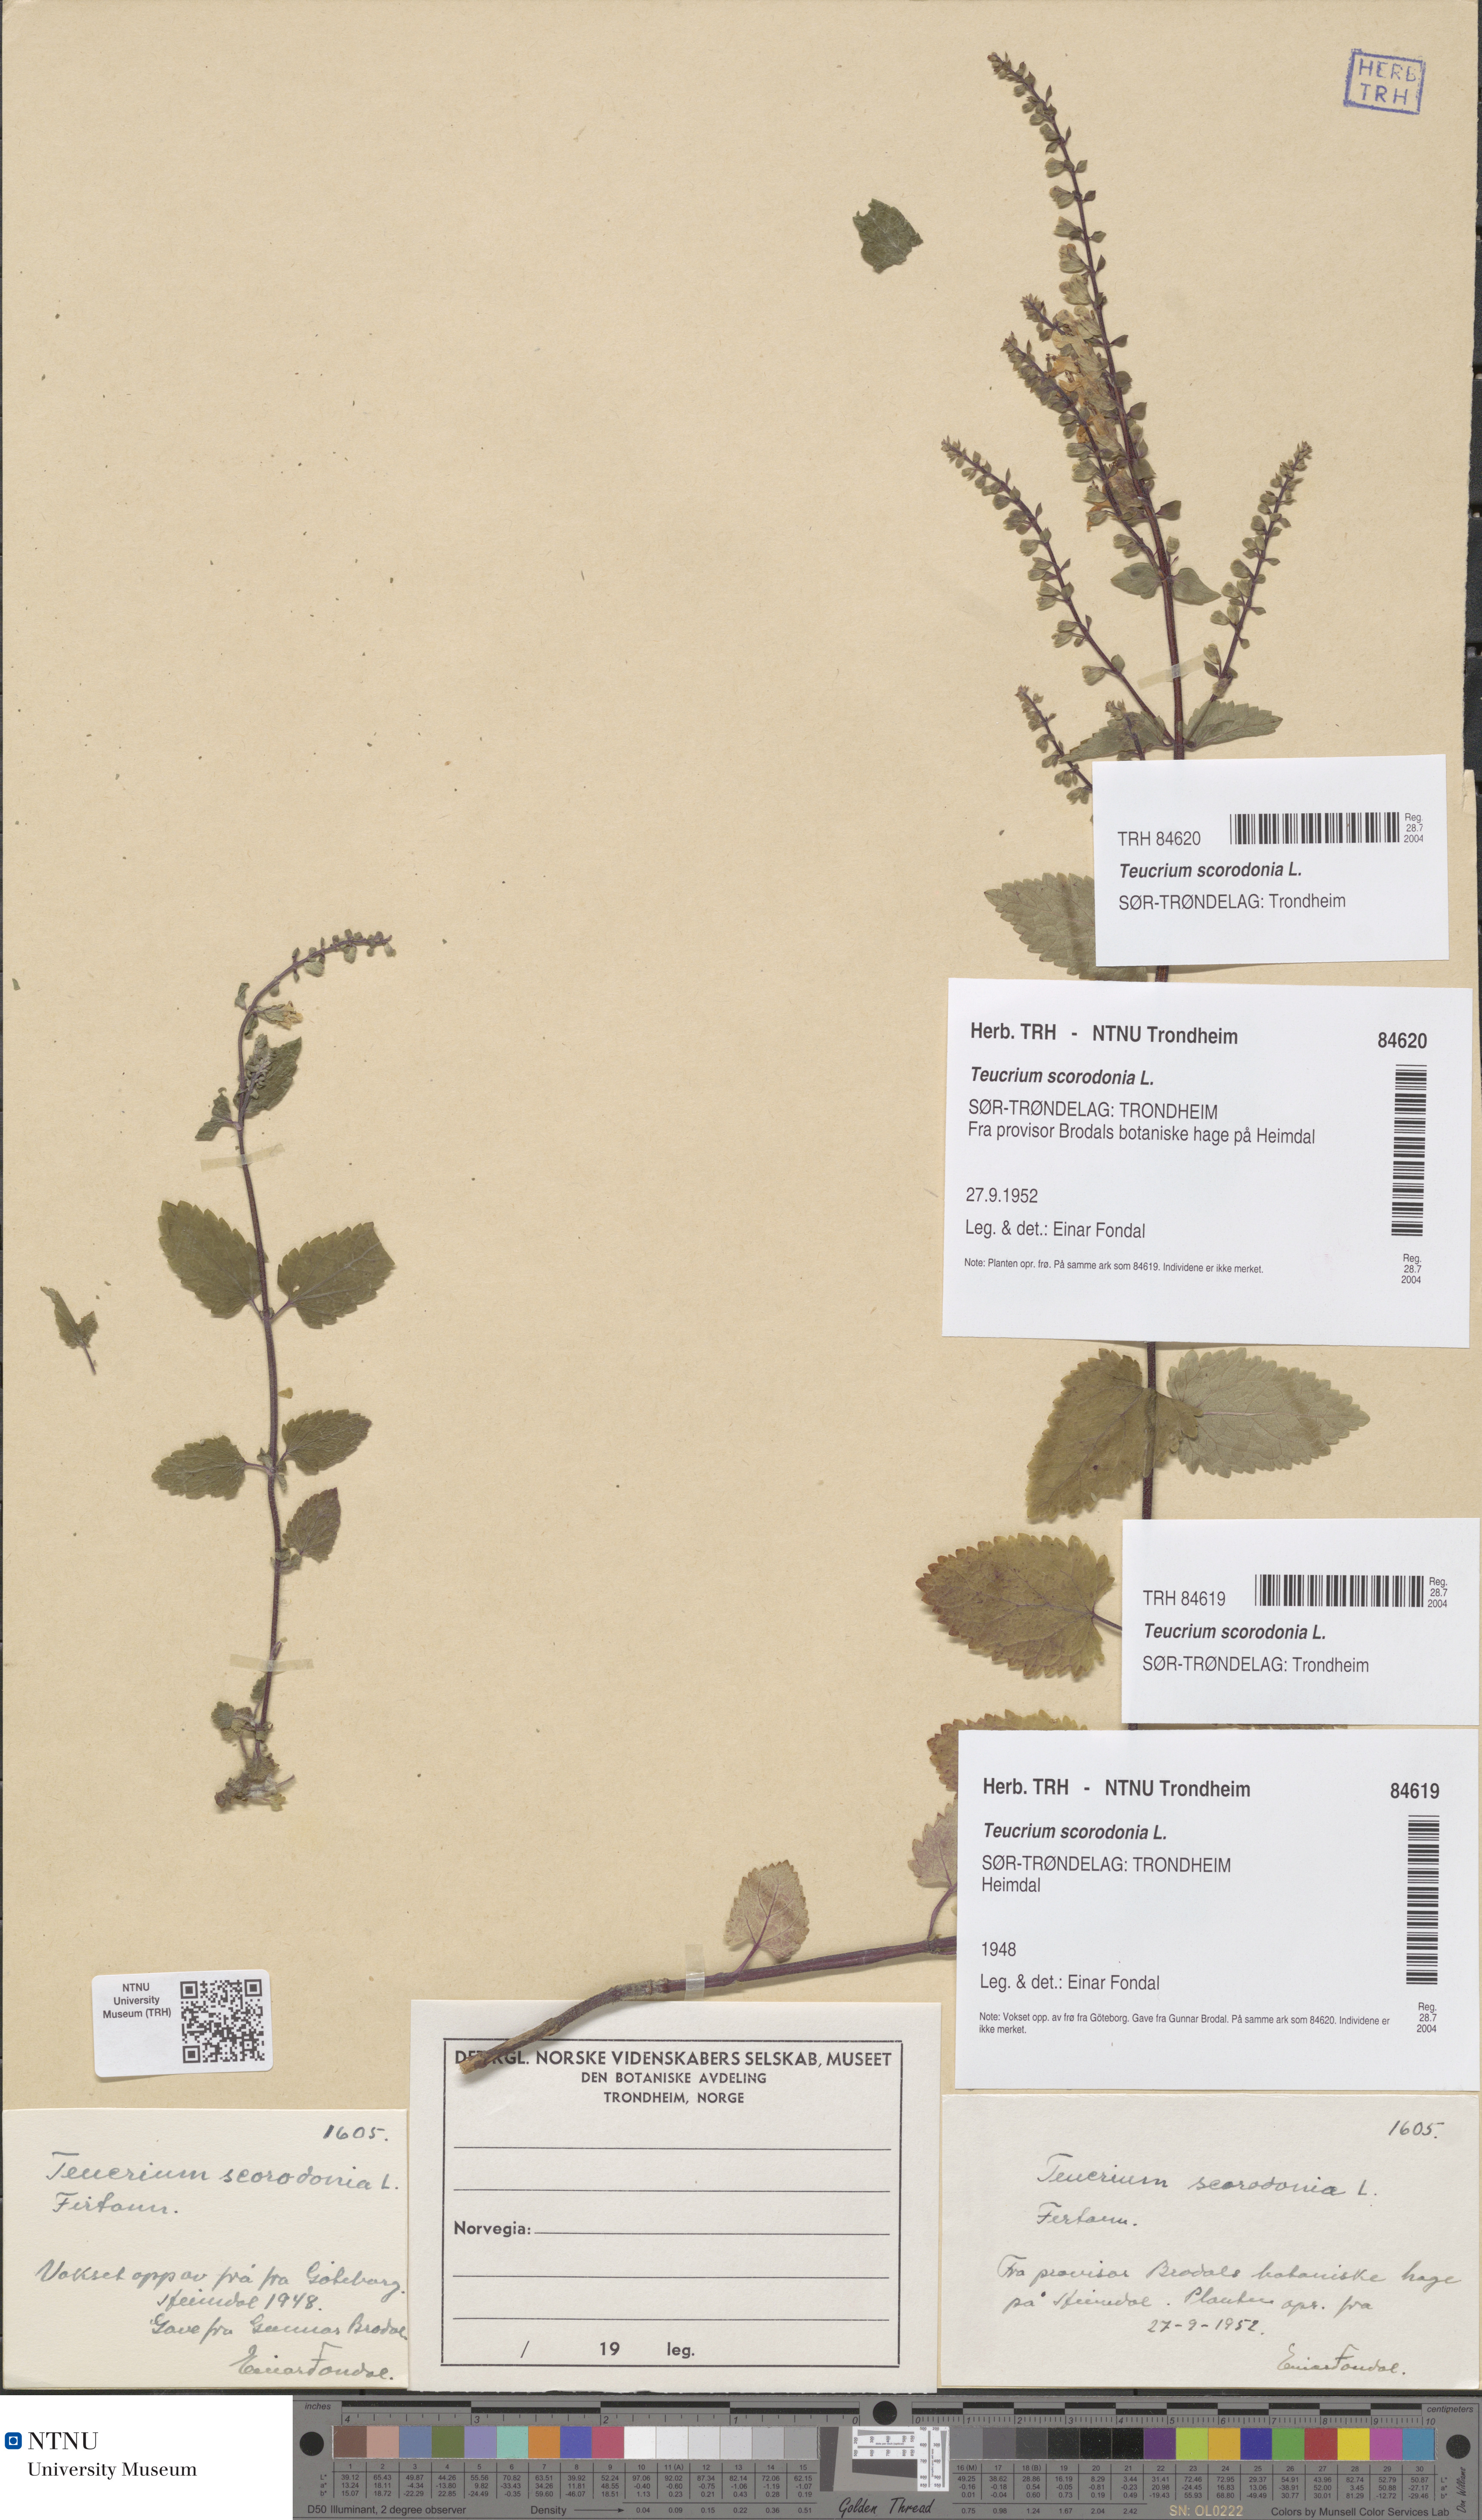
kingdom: Plantae
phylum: Tracheophyta
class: Magnoliopsida
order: Lamiales
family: Lamiaceae
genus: Teucrium
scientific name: Teucrium scorodonia
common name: Woodland germander
